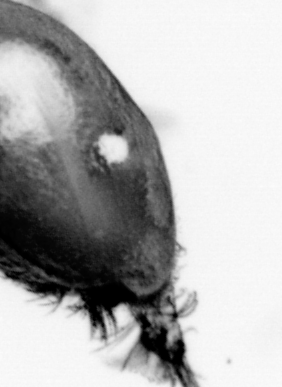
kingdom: Animalia
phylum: Arthropoda
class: Copepoda
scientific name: Copepoda
